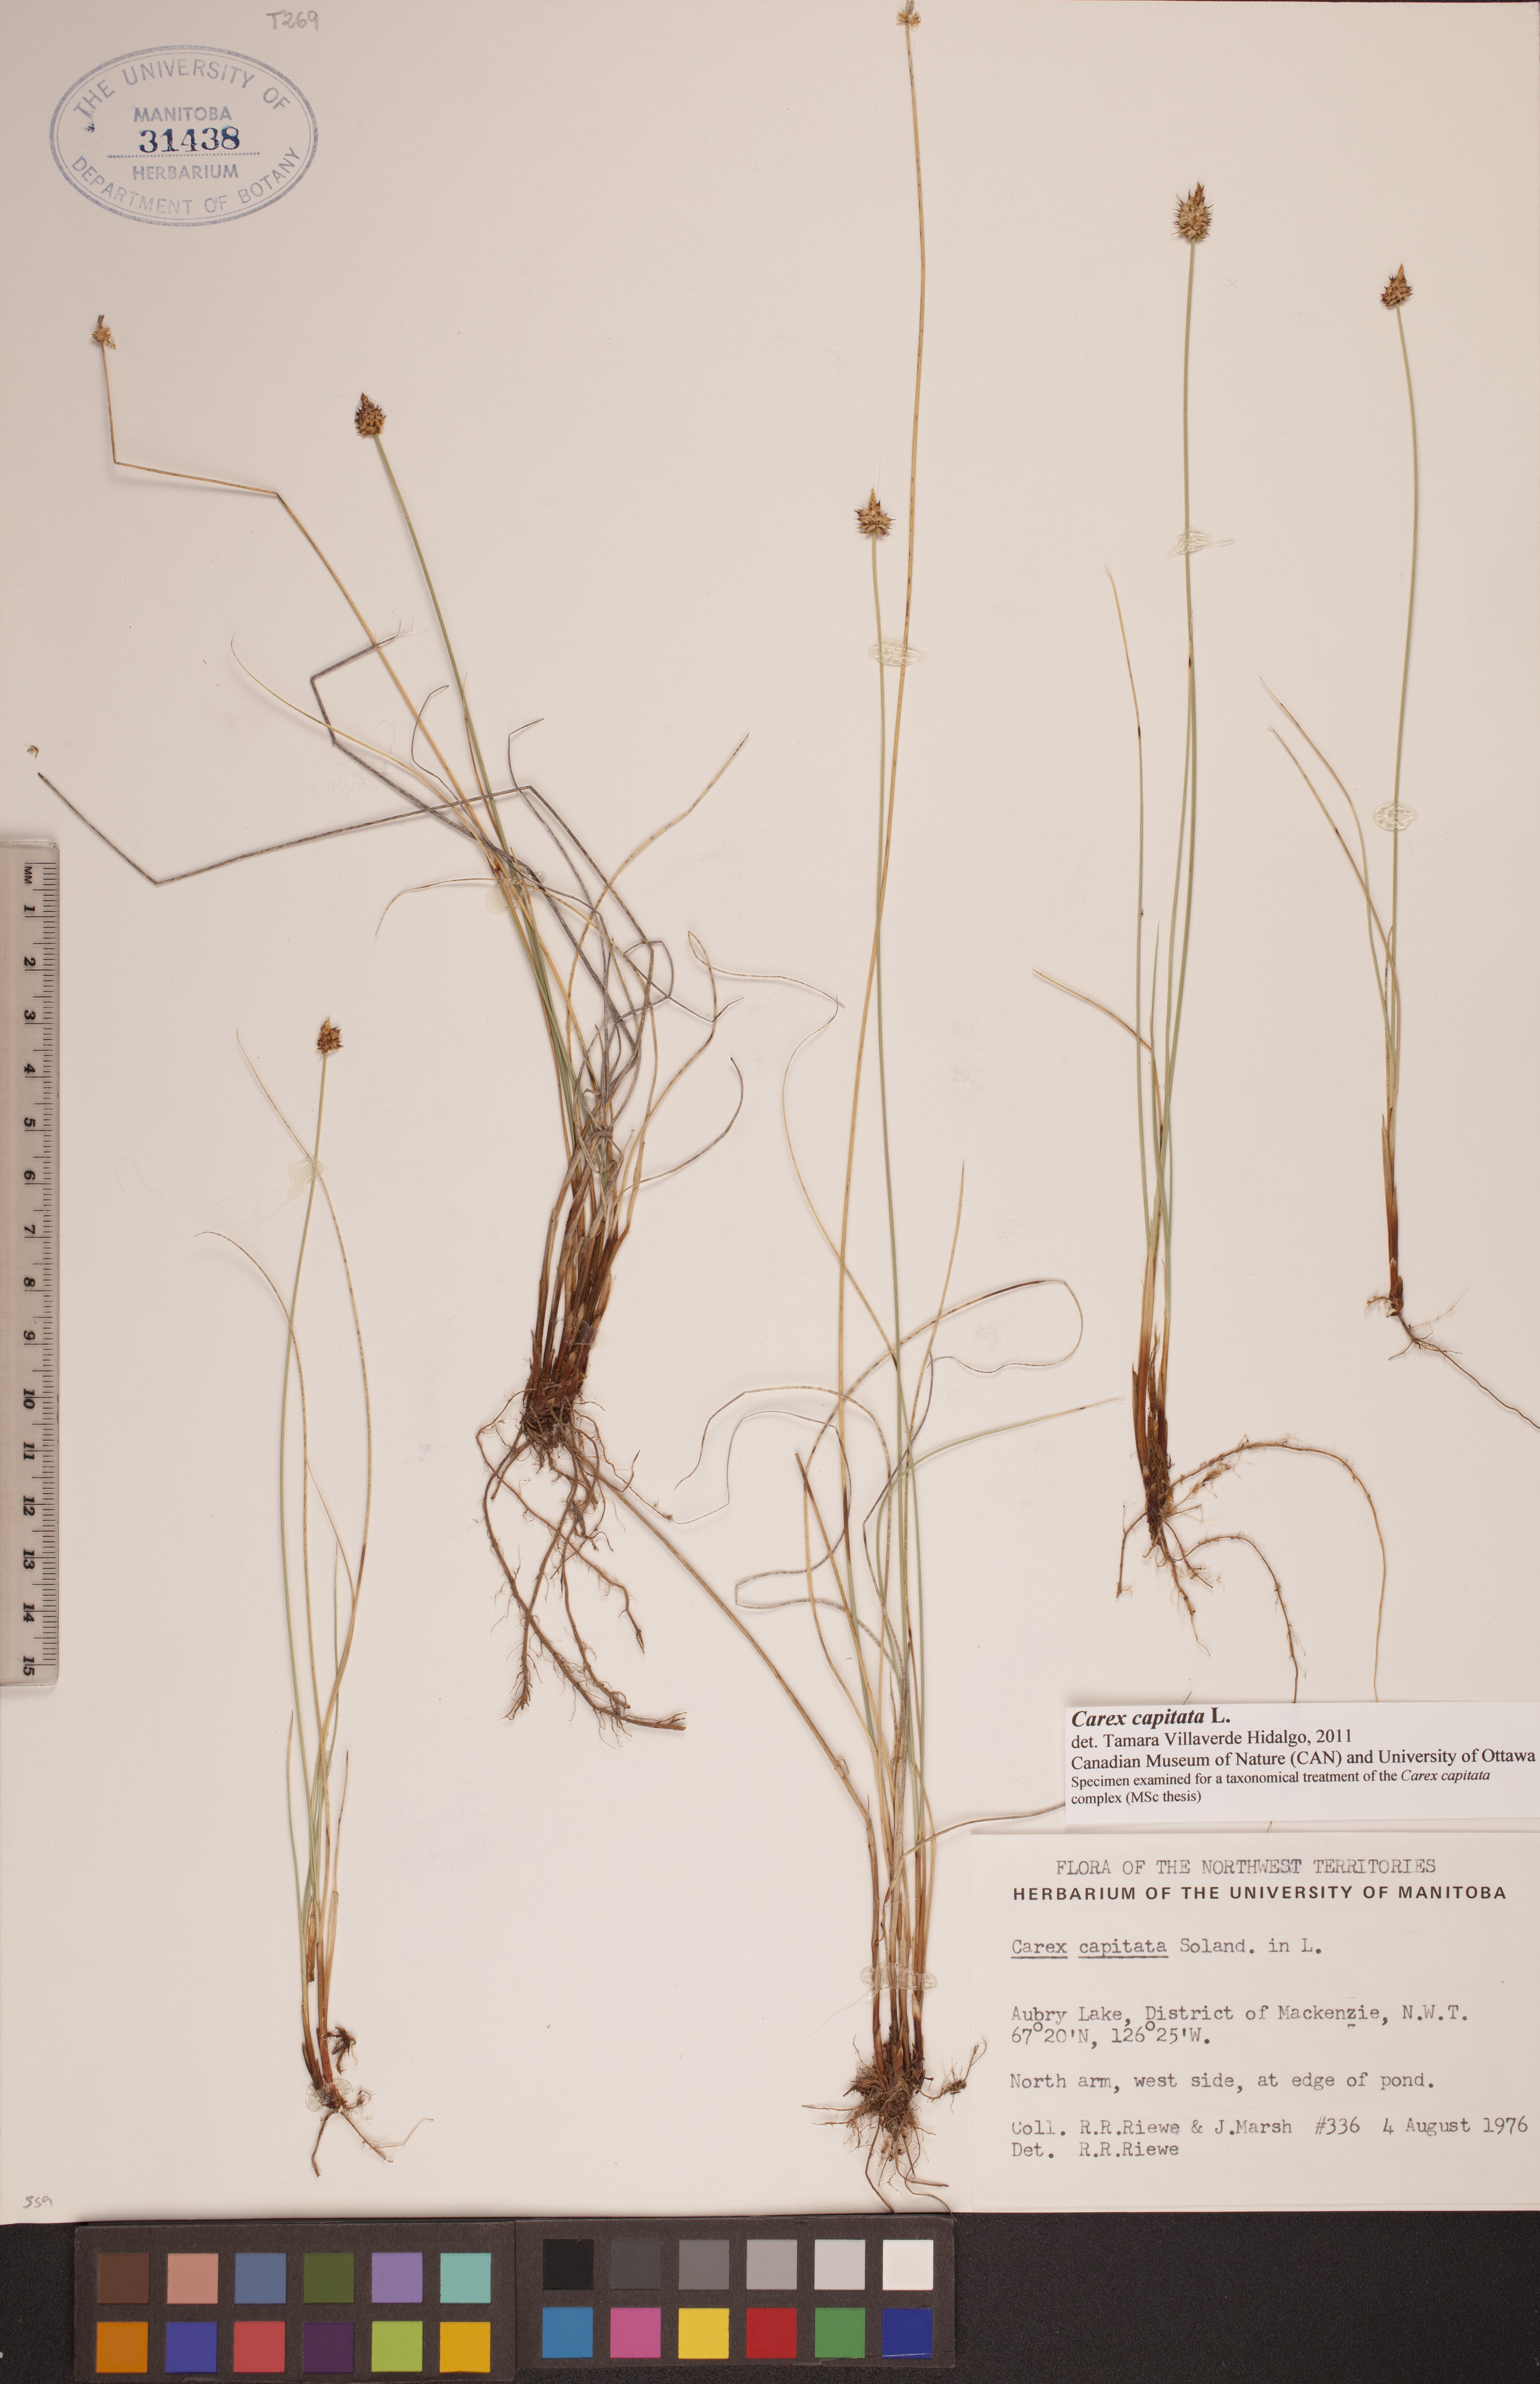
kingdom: Plantae
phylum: Tracheophyta
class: Liliopsida
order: Poales
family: Cyperaceae
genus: Carex
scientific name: Carex capitata
